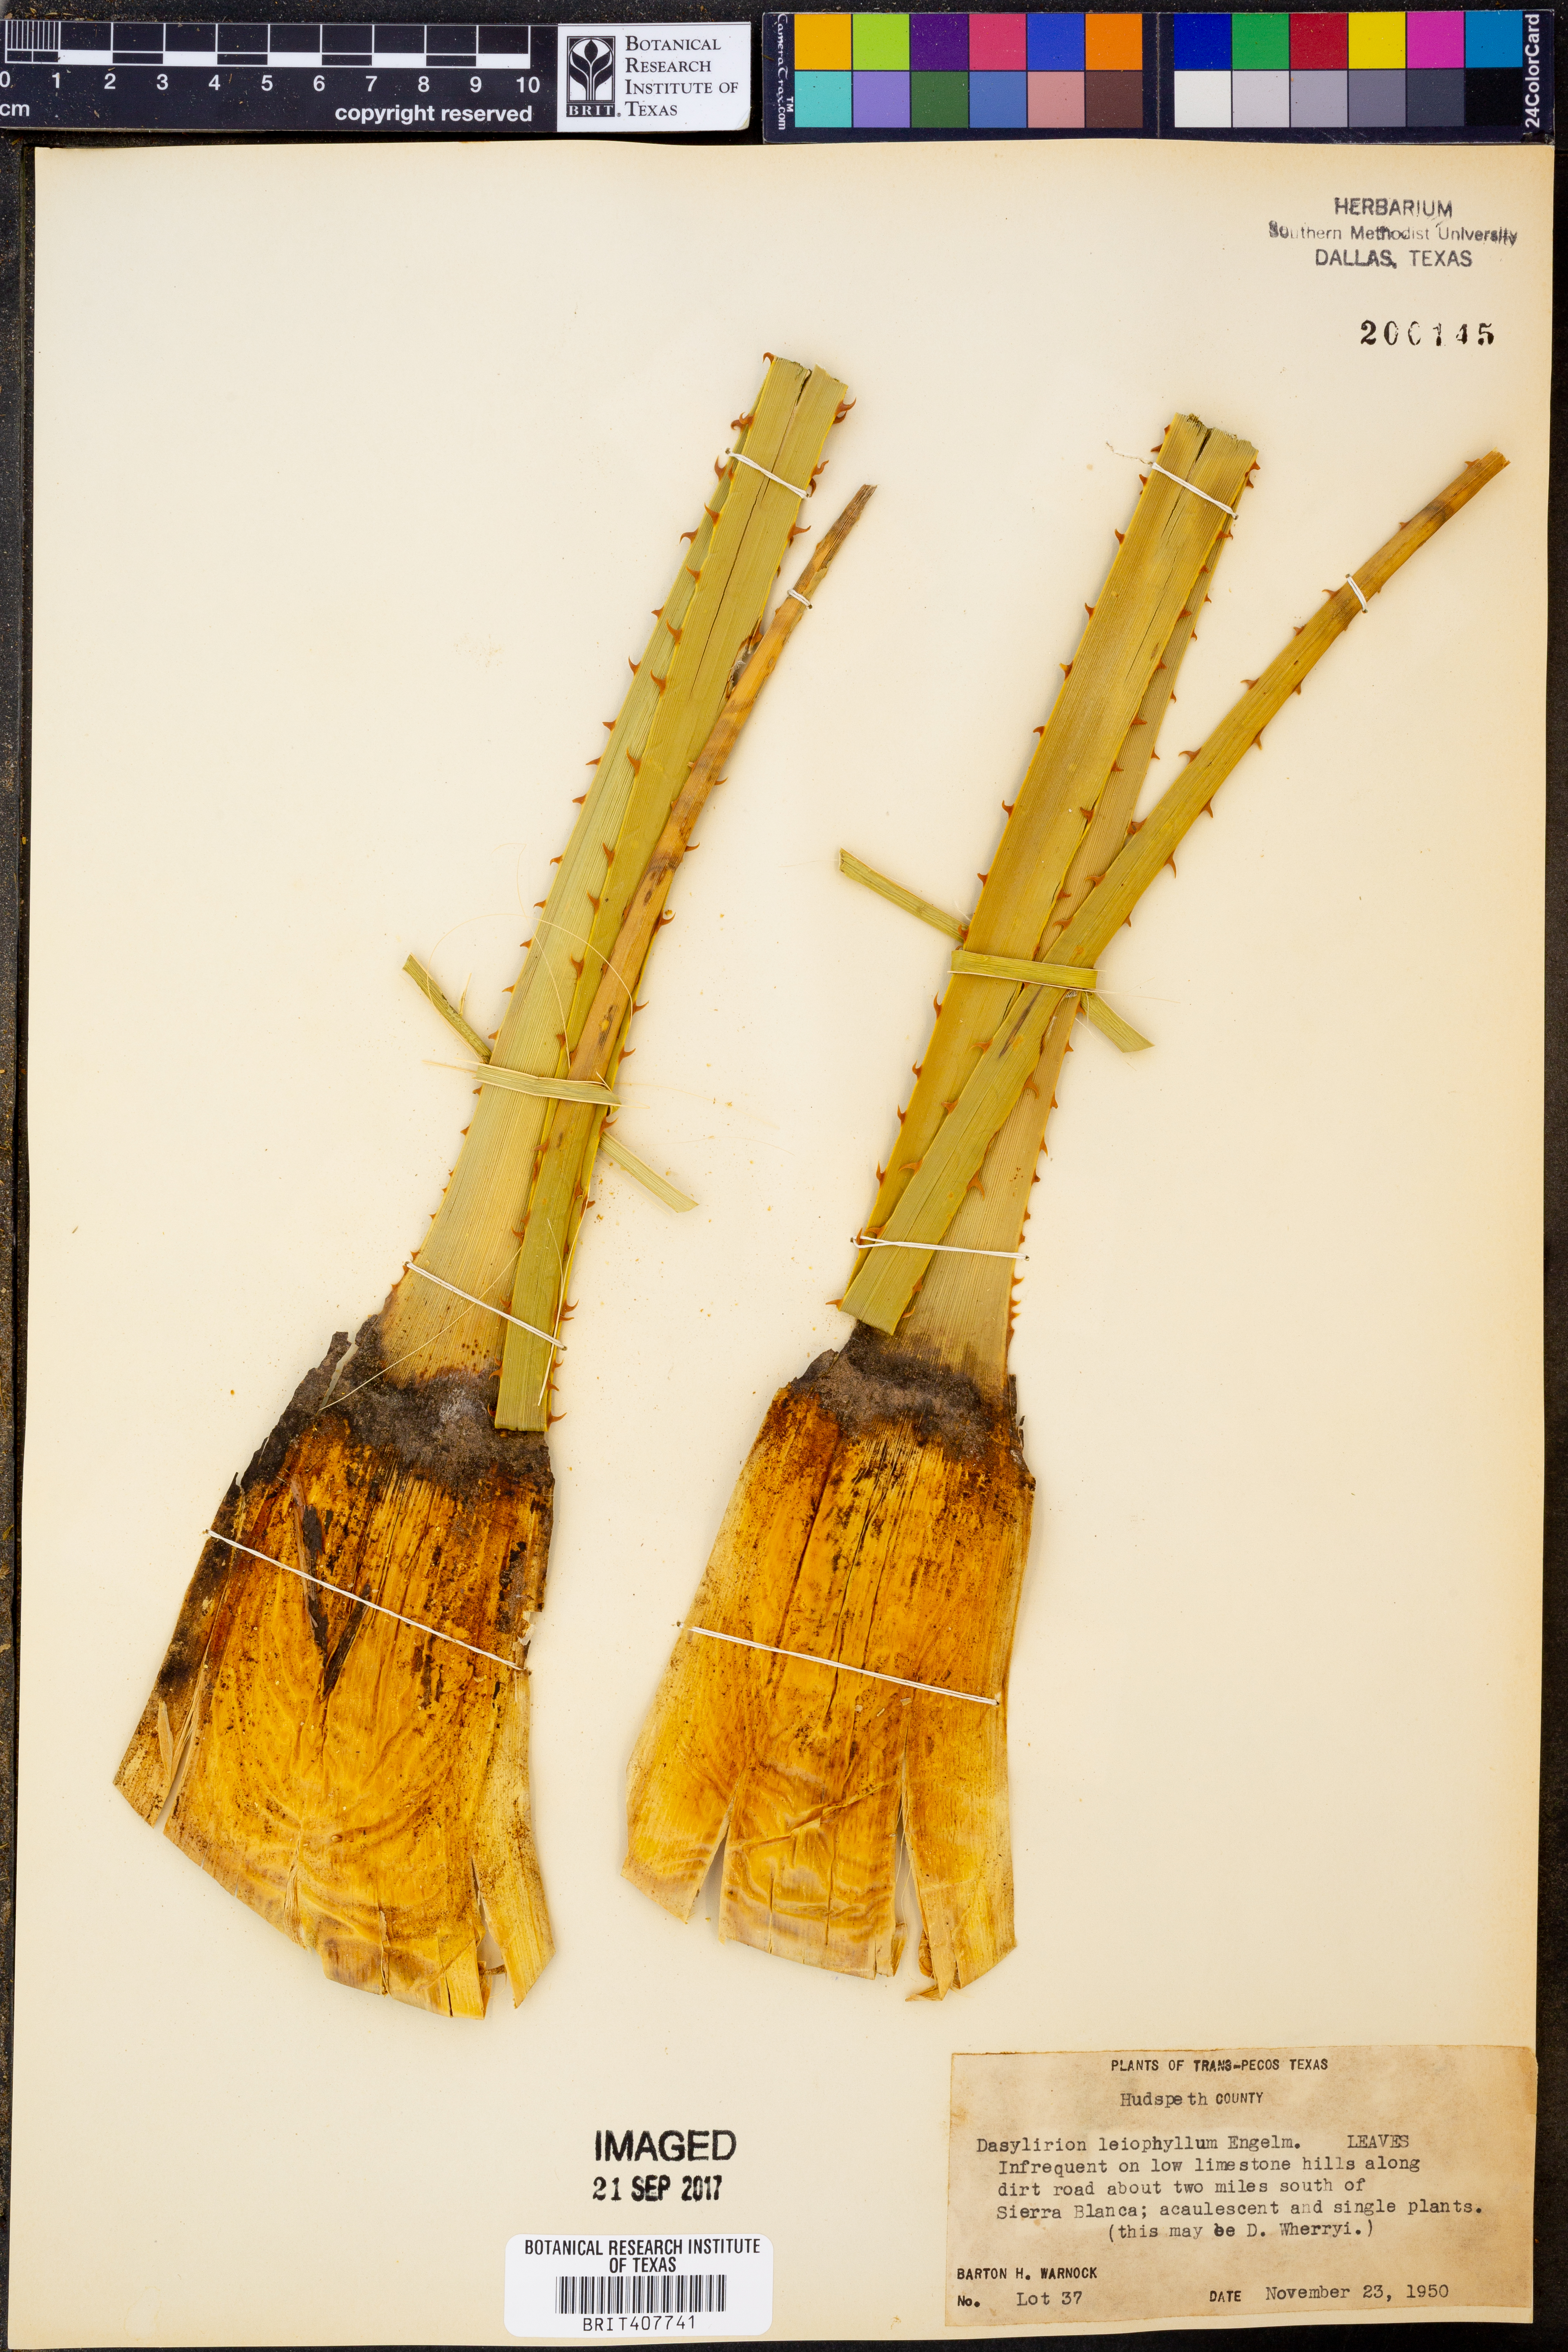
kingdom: Plantae
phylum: Tracheophyta
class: Liliopsida
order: Asparagales
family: Asparagaceae
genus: Dasylirion
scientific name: Dasylirion leiophyllum
